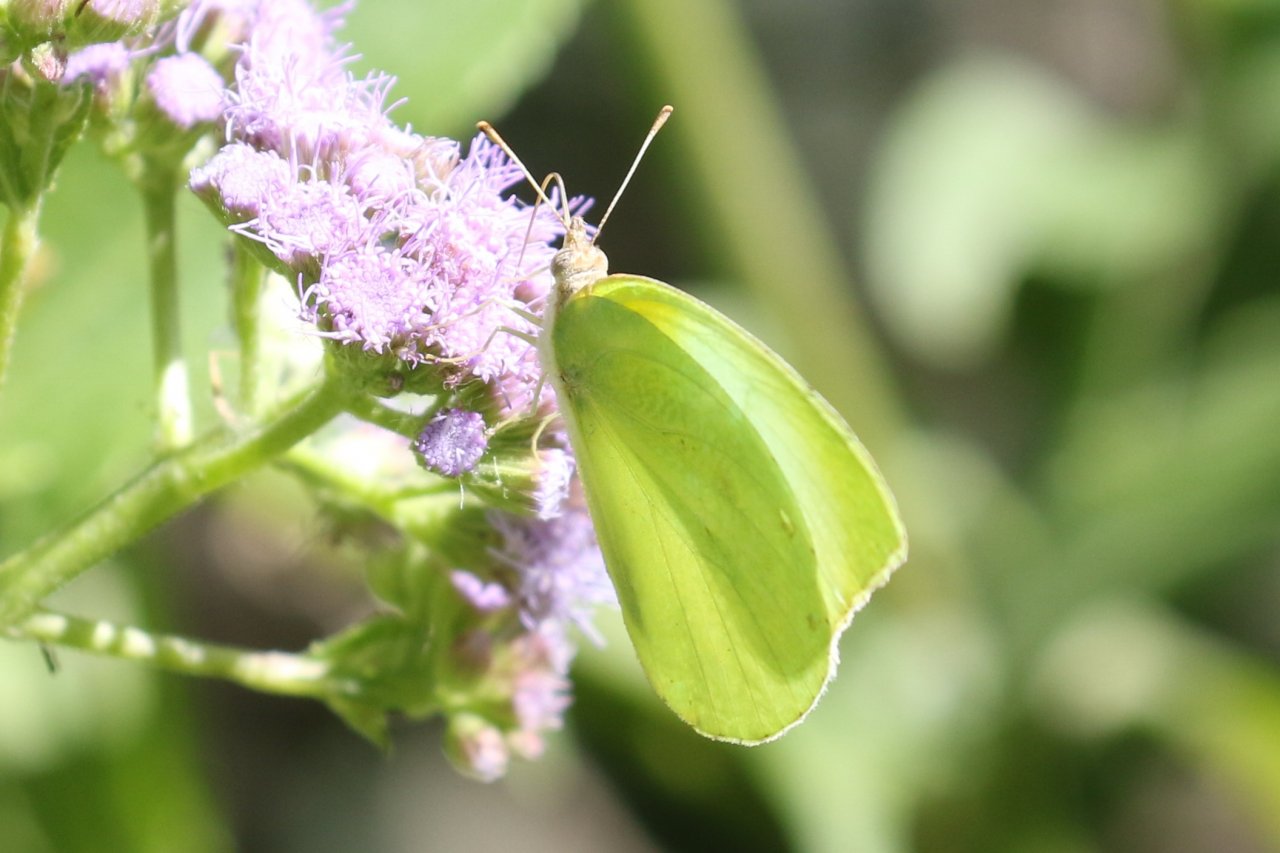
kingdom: Animalia
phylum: Arthropoda
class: Insecta
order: Lepidoptera
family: Pieridae
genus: Kricogonia
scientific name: Kricogonia lyside
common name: Lyside Sulphur
